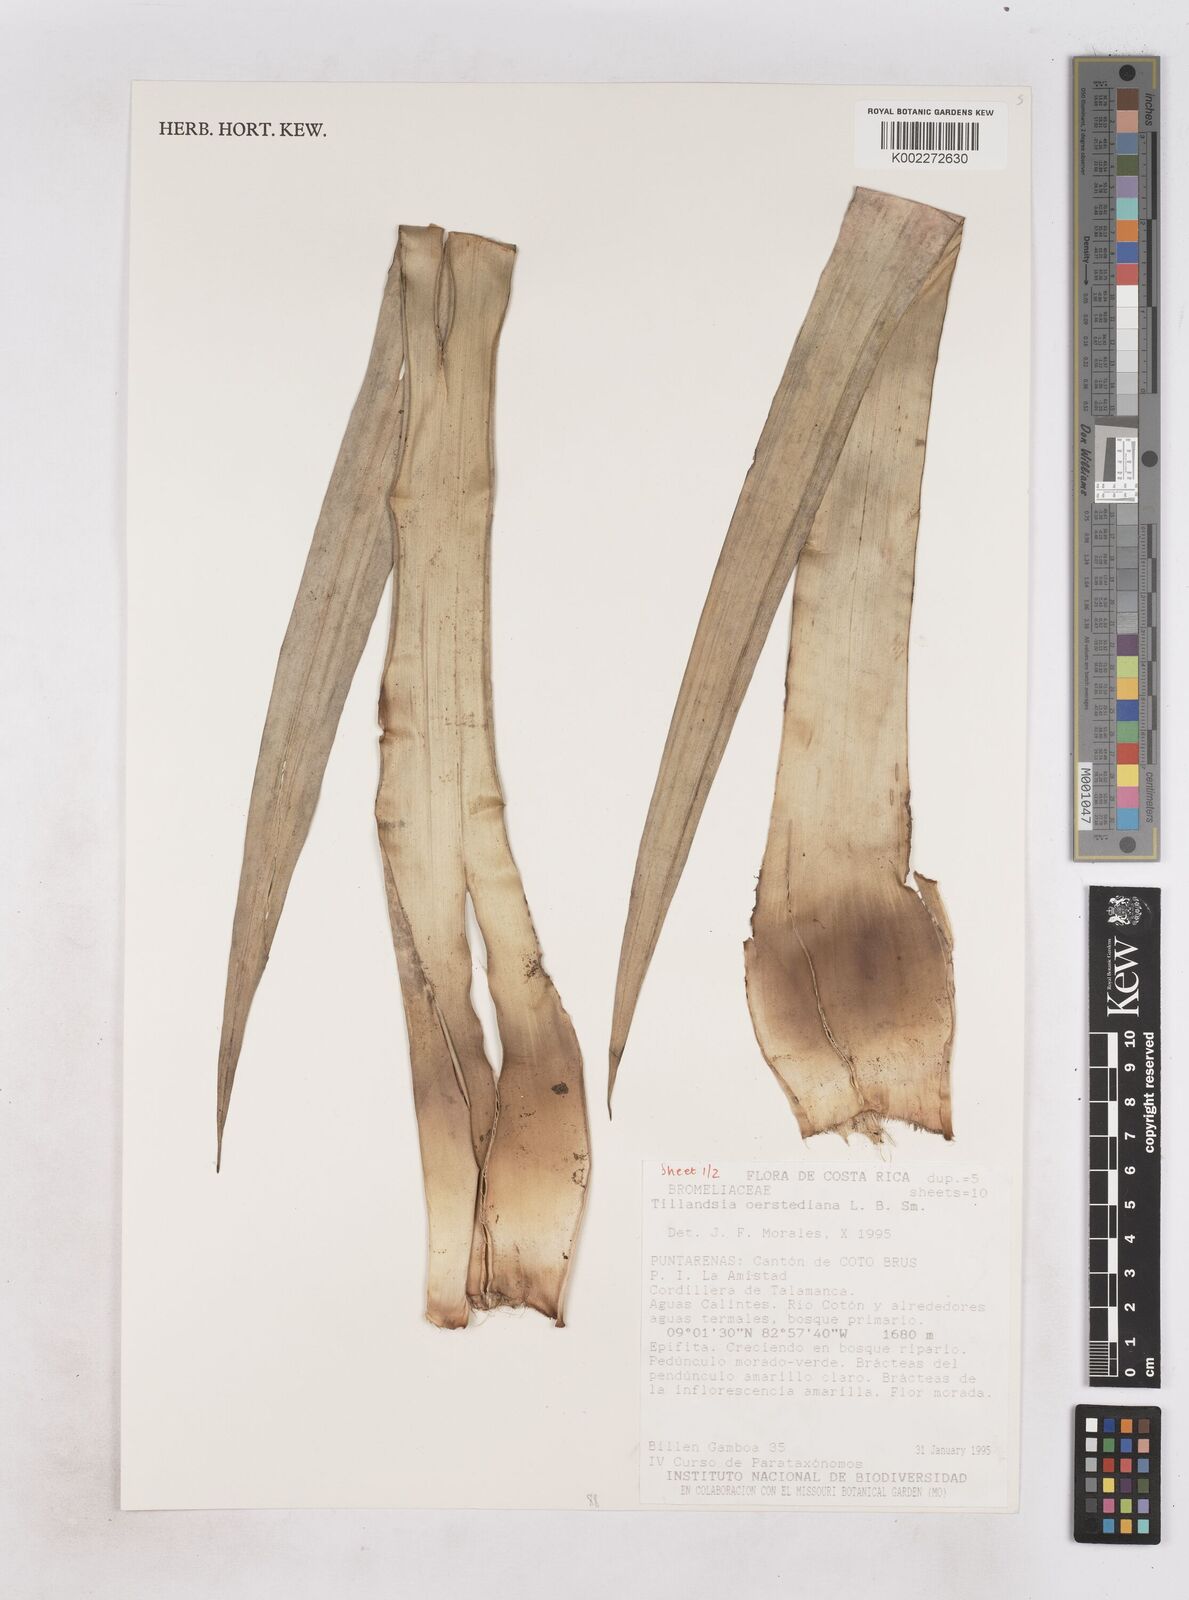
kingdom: Plantae
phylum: Tracheophyta
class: Liliopsida
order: Poales
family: Bromeliaceae
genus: Tillandsia
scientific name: Tillandsia oerstediana
